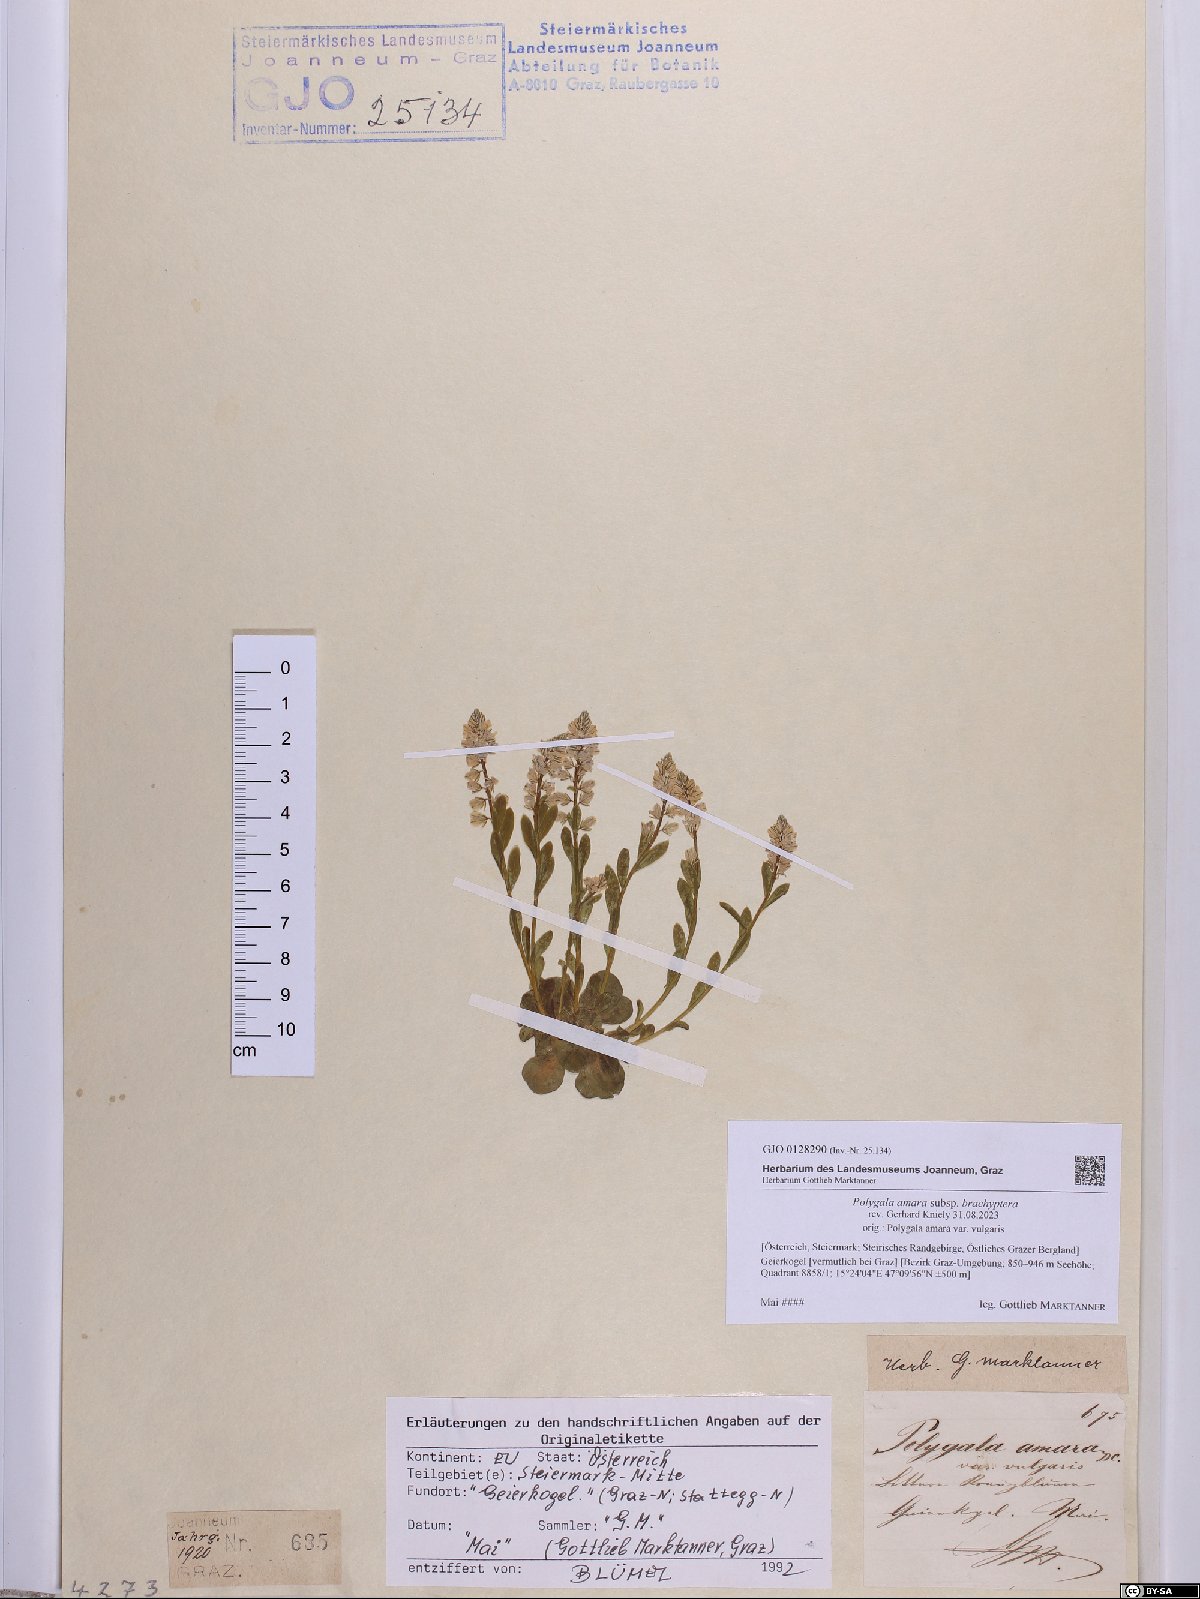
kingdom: Plantae
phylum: Tracheophyta
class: Magnoliopsida
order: Fabales
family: Polygalaceae
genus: Polygala
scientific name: Polygala amara
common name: Milkwort
